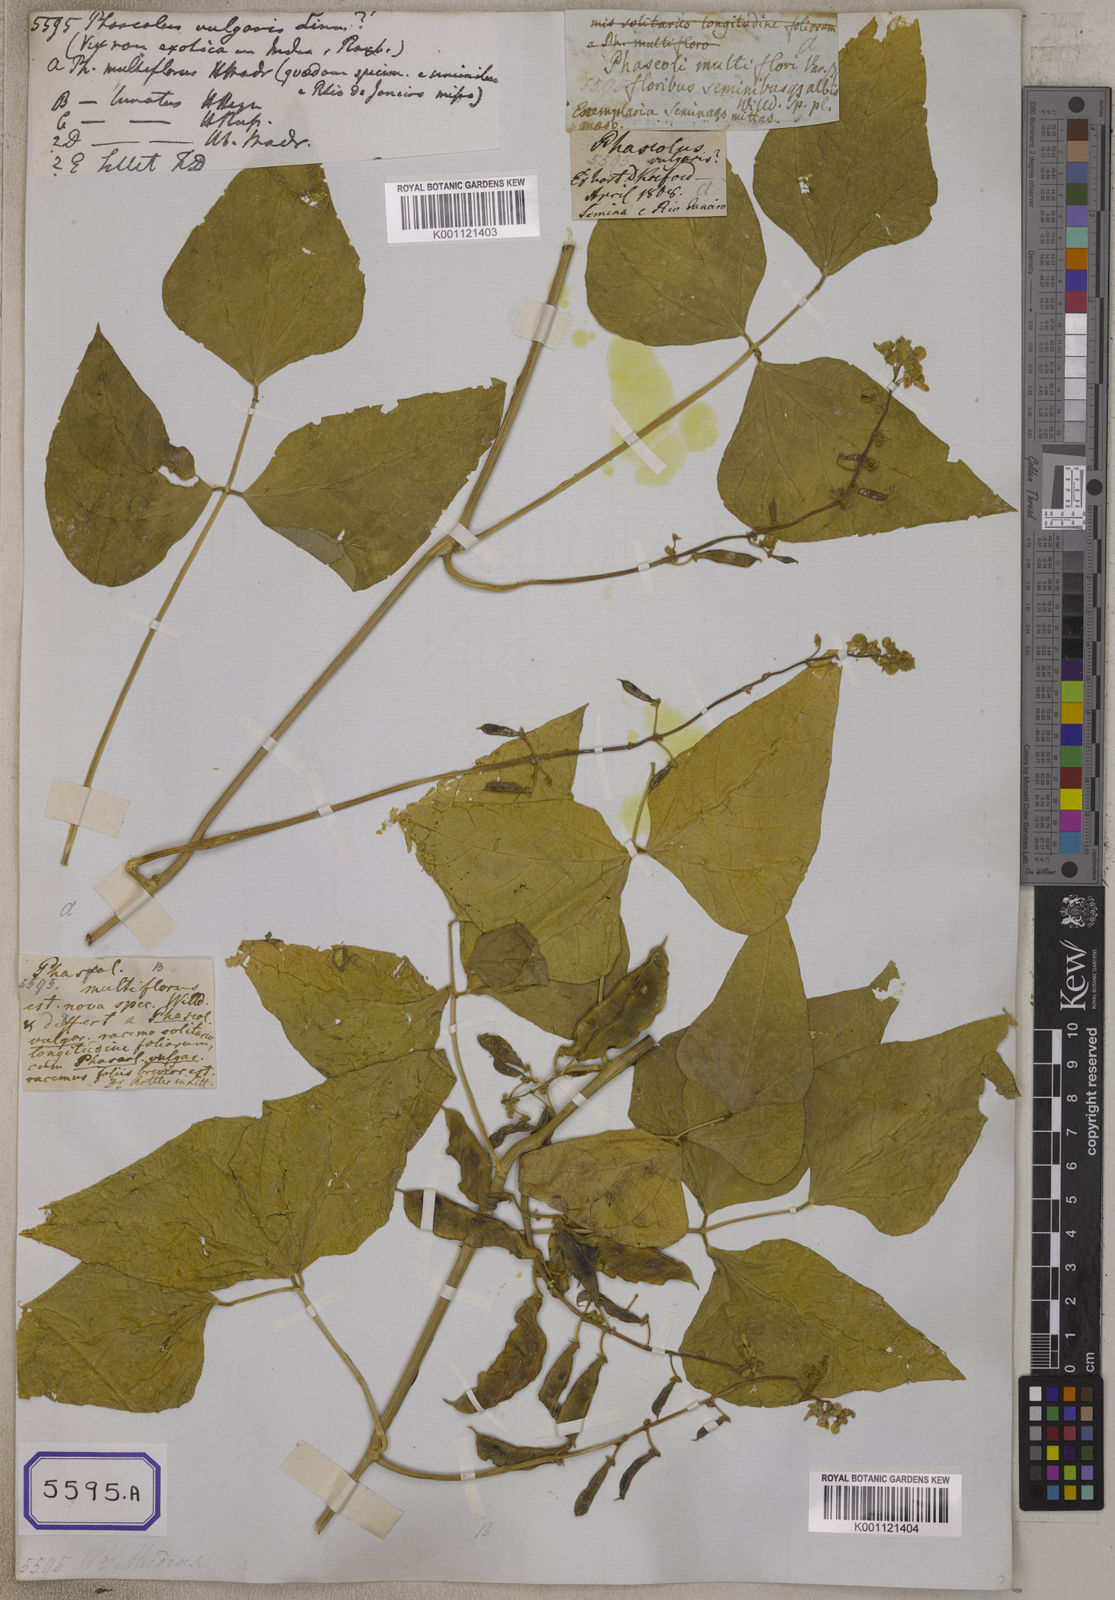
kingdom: Plantae
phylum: Tracheophyta
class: Magnoliopsida
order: Fabales
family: Fabaceae
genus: Phaseolus
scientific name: Phaseolus vulgaris
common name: Bean
